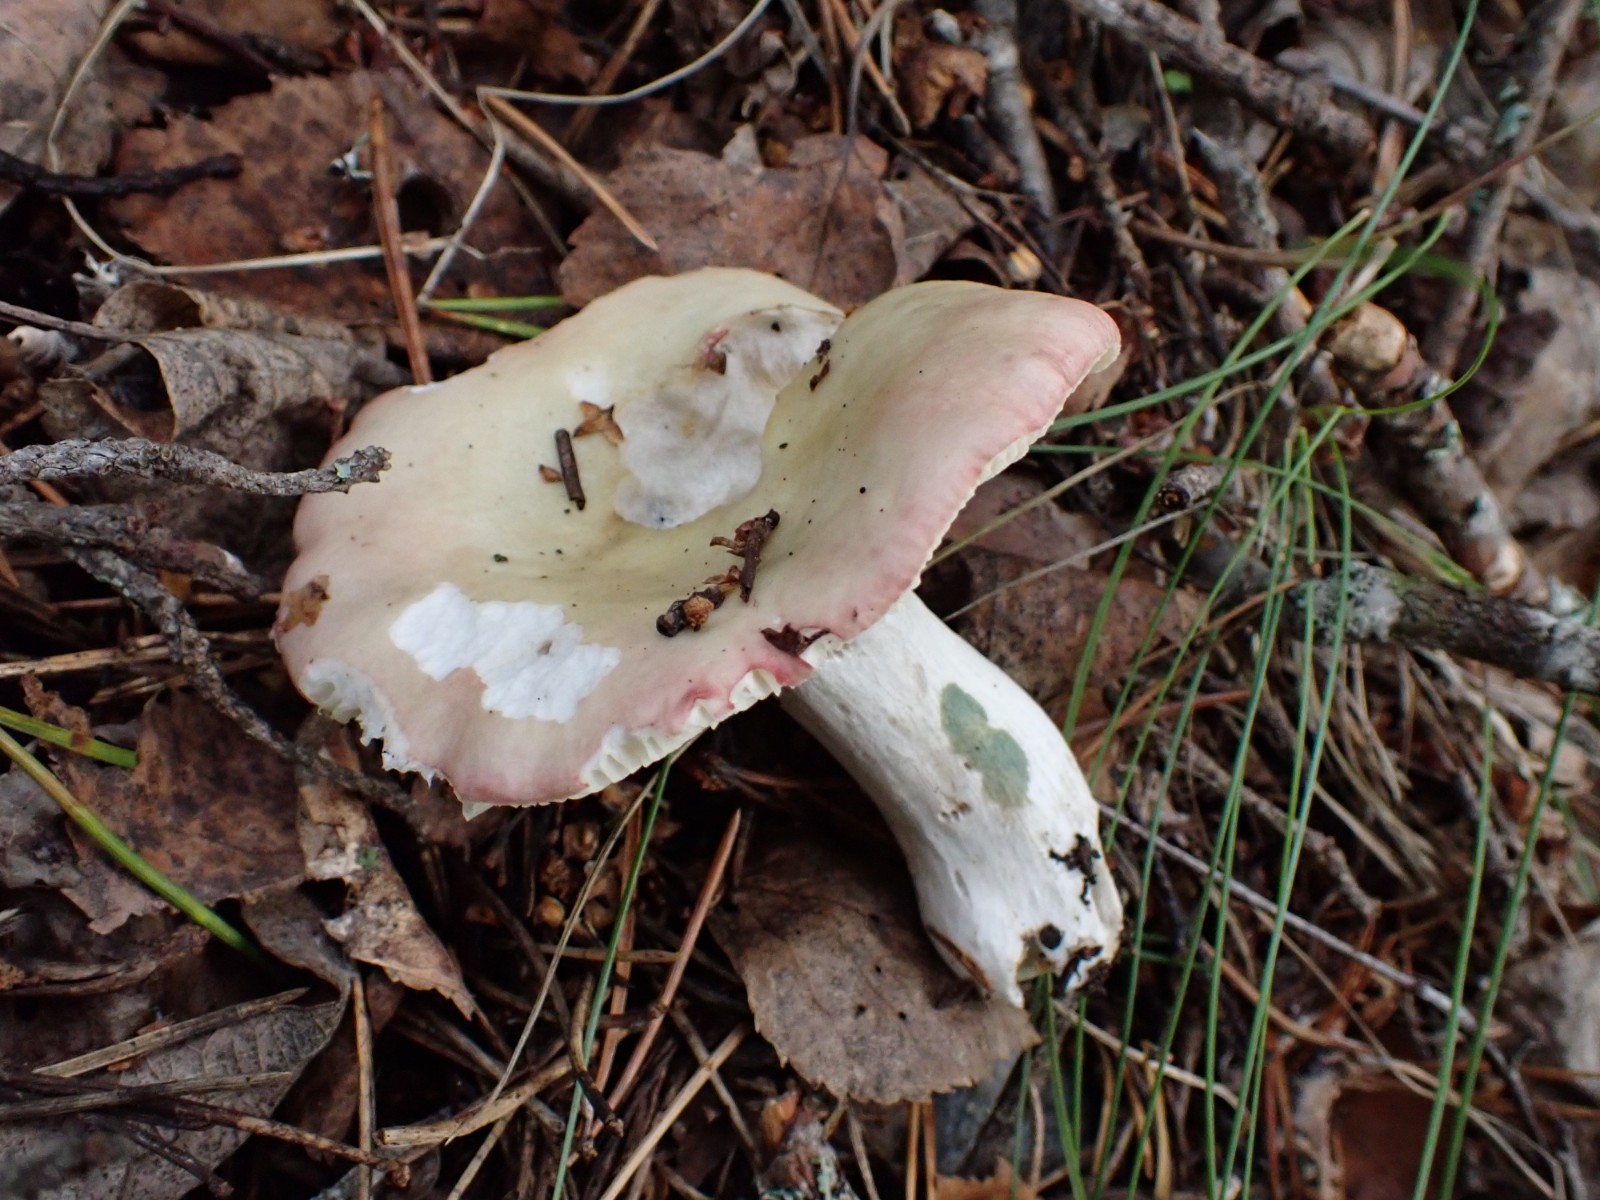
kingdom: Fungi
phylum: Basidiomycota
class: Agaricomycetes
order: Russulales
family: Russulaceae
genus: Russula
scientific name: Russula depallens
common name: falmende skørhat
